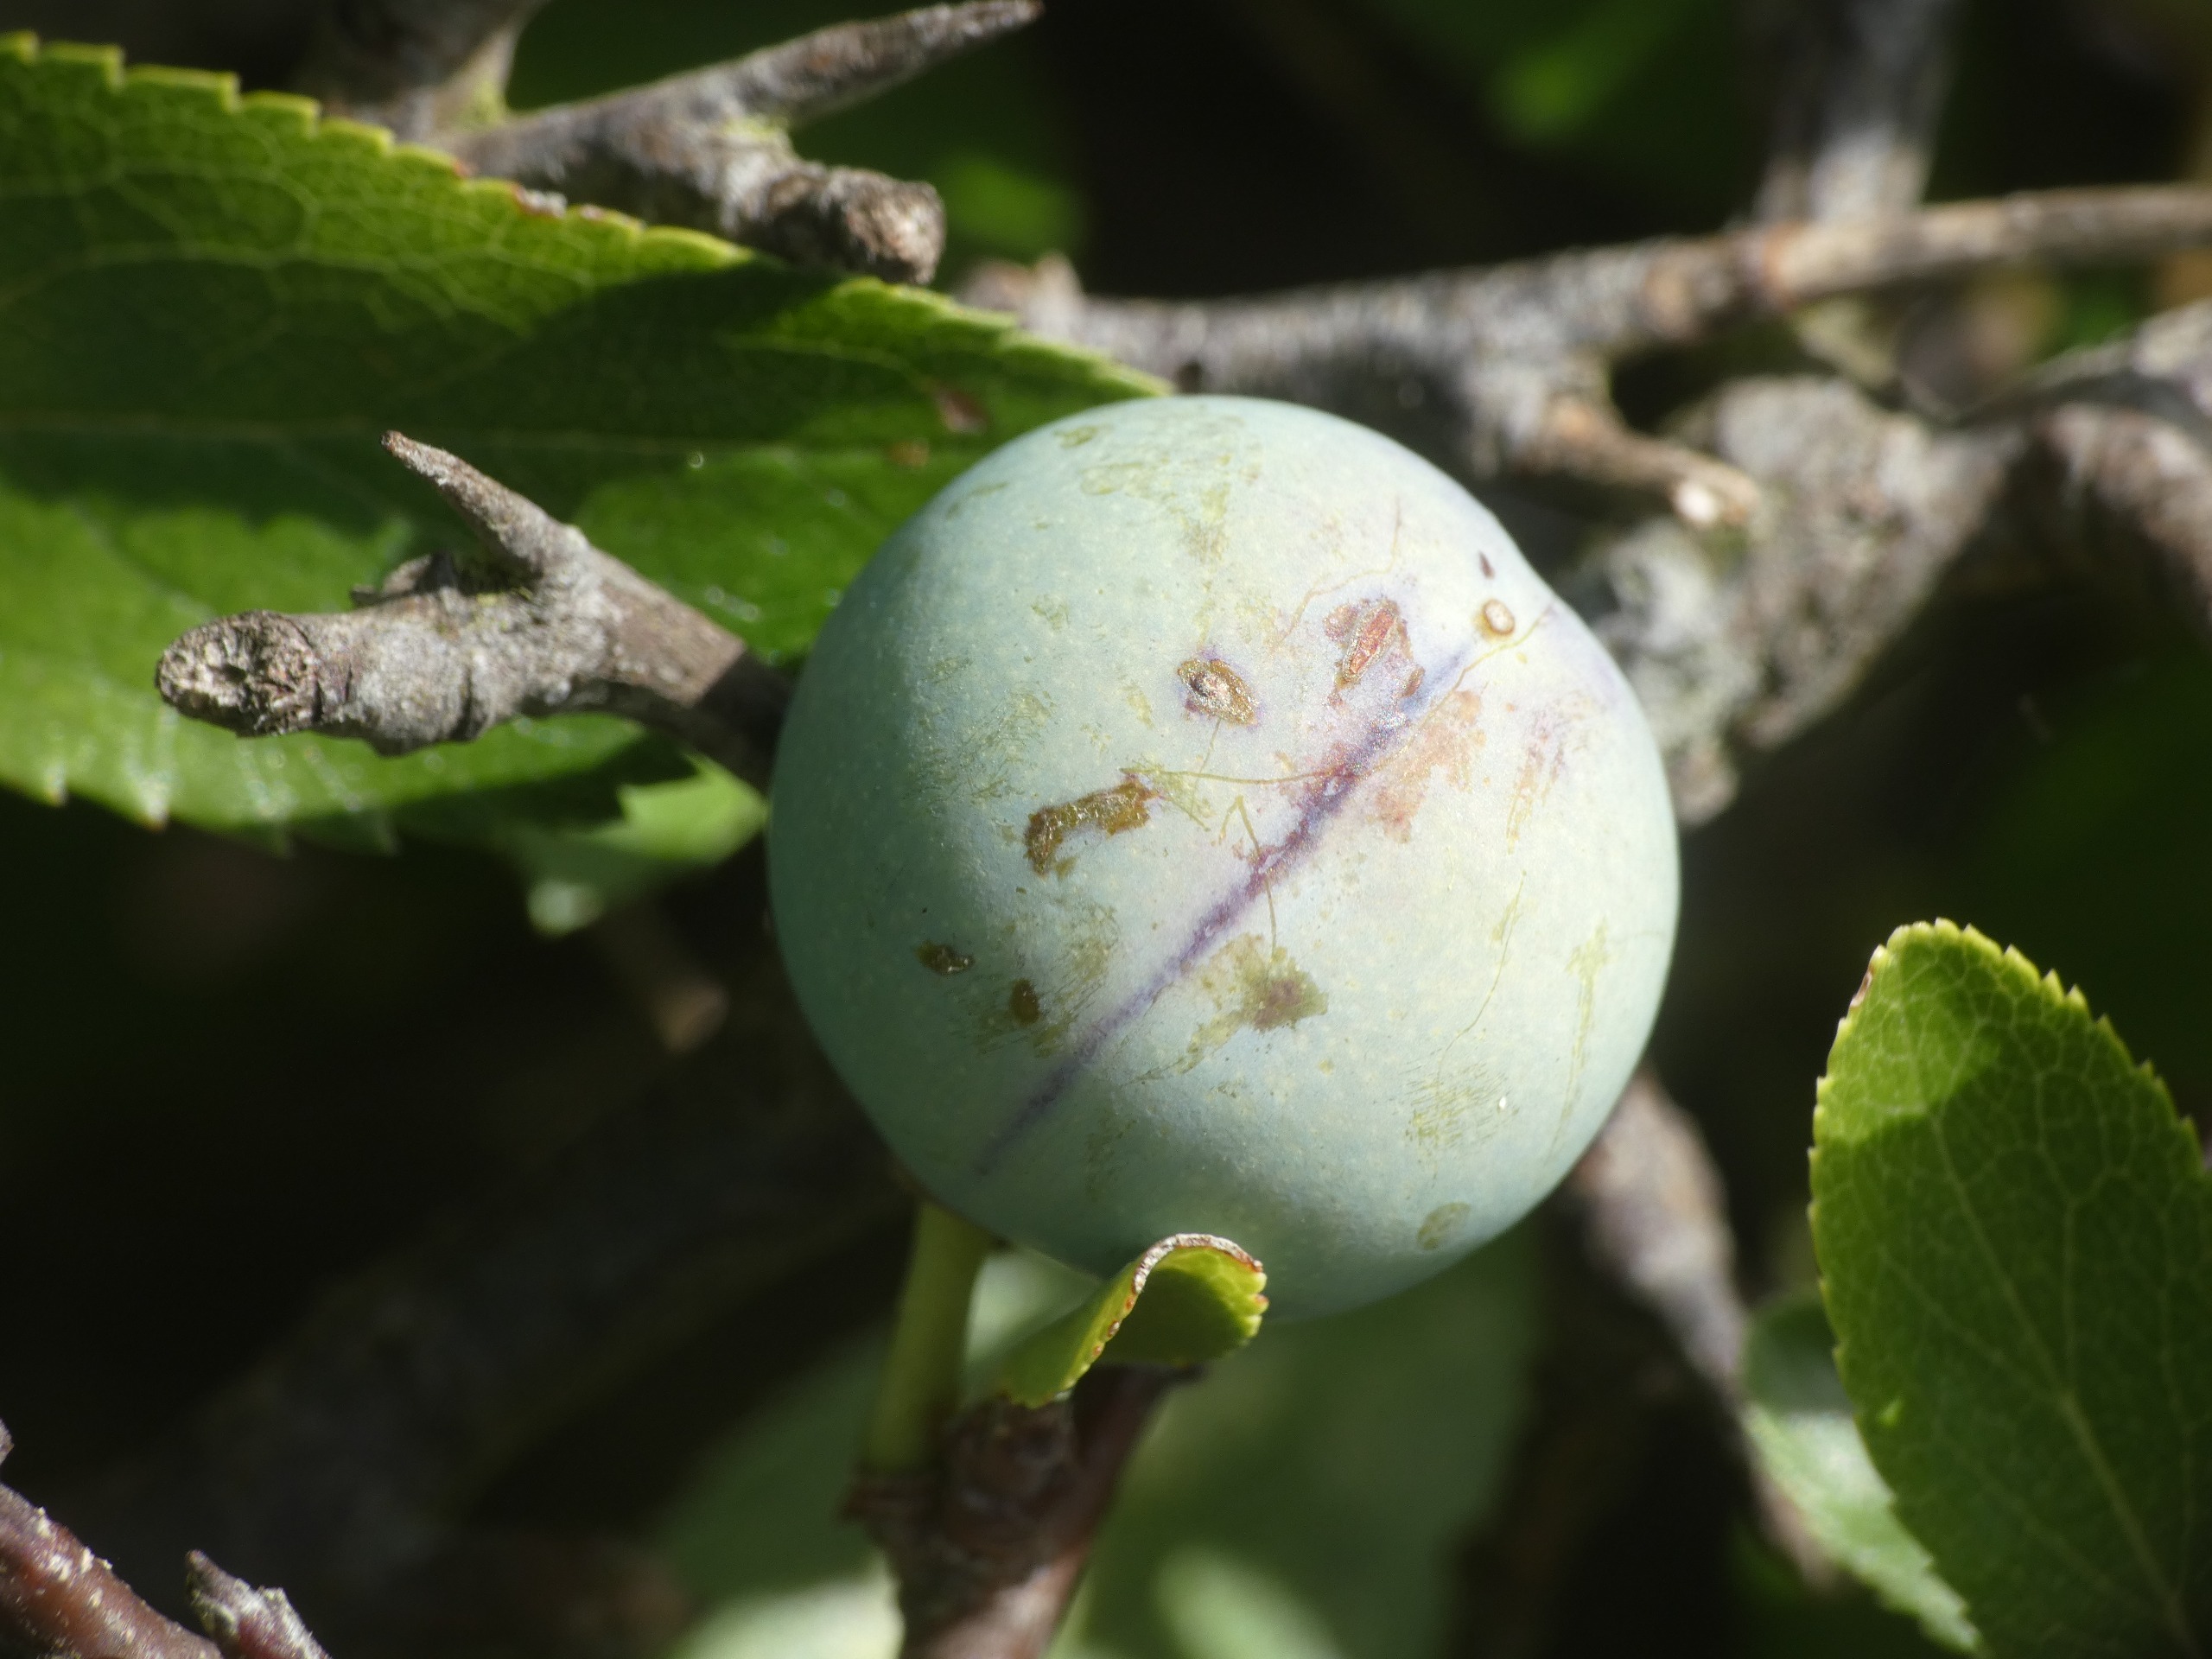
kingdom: Plantae
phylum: Tracheophyta
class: Magnoliopsida
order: Rosales
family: Rosaceae
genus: Prunus
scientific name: Prunus spinosa
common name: Slåen
